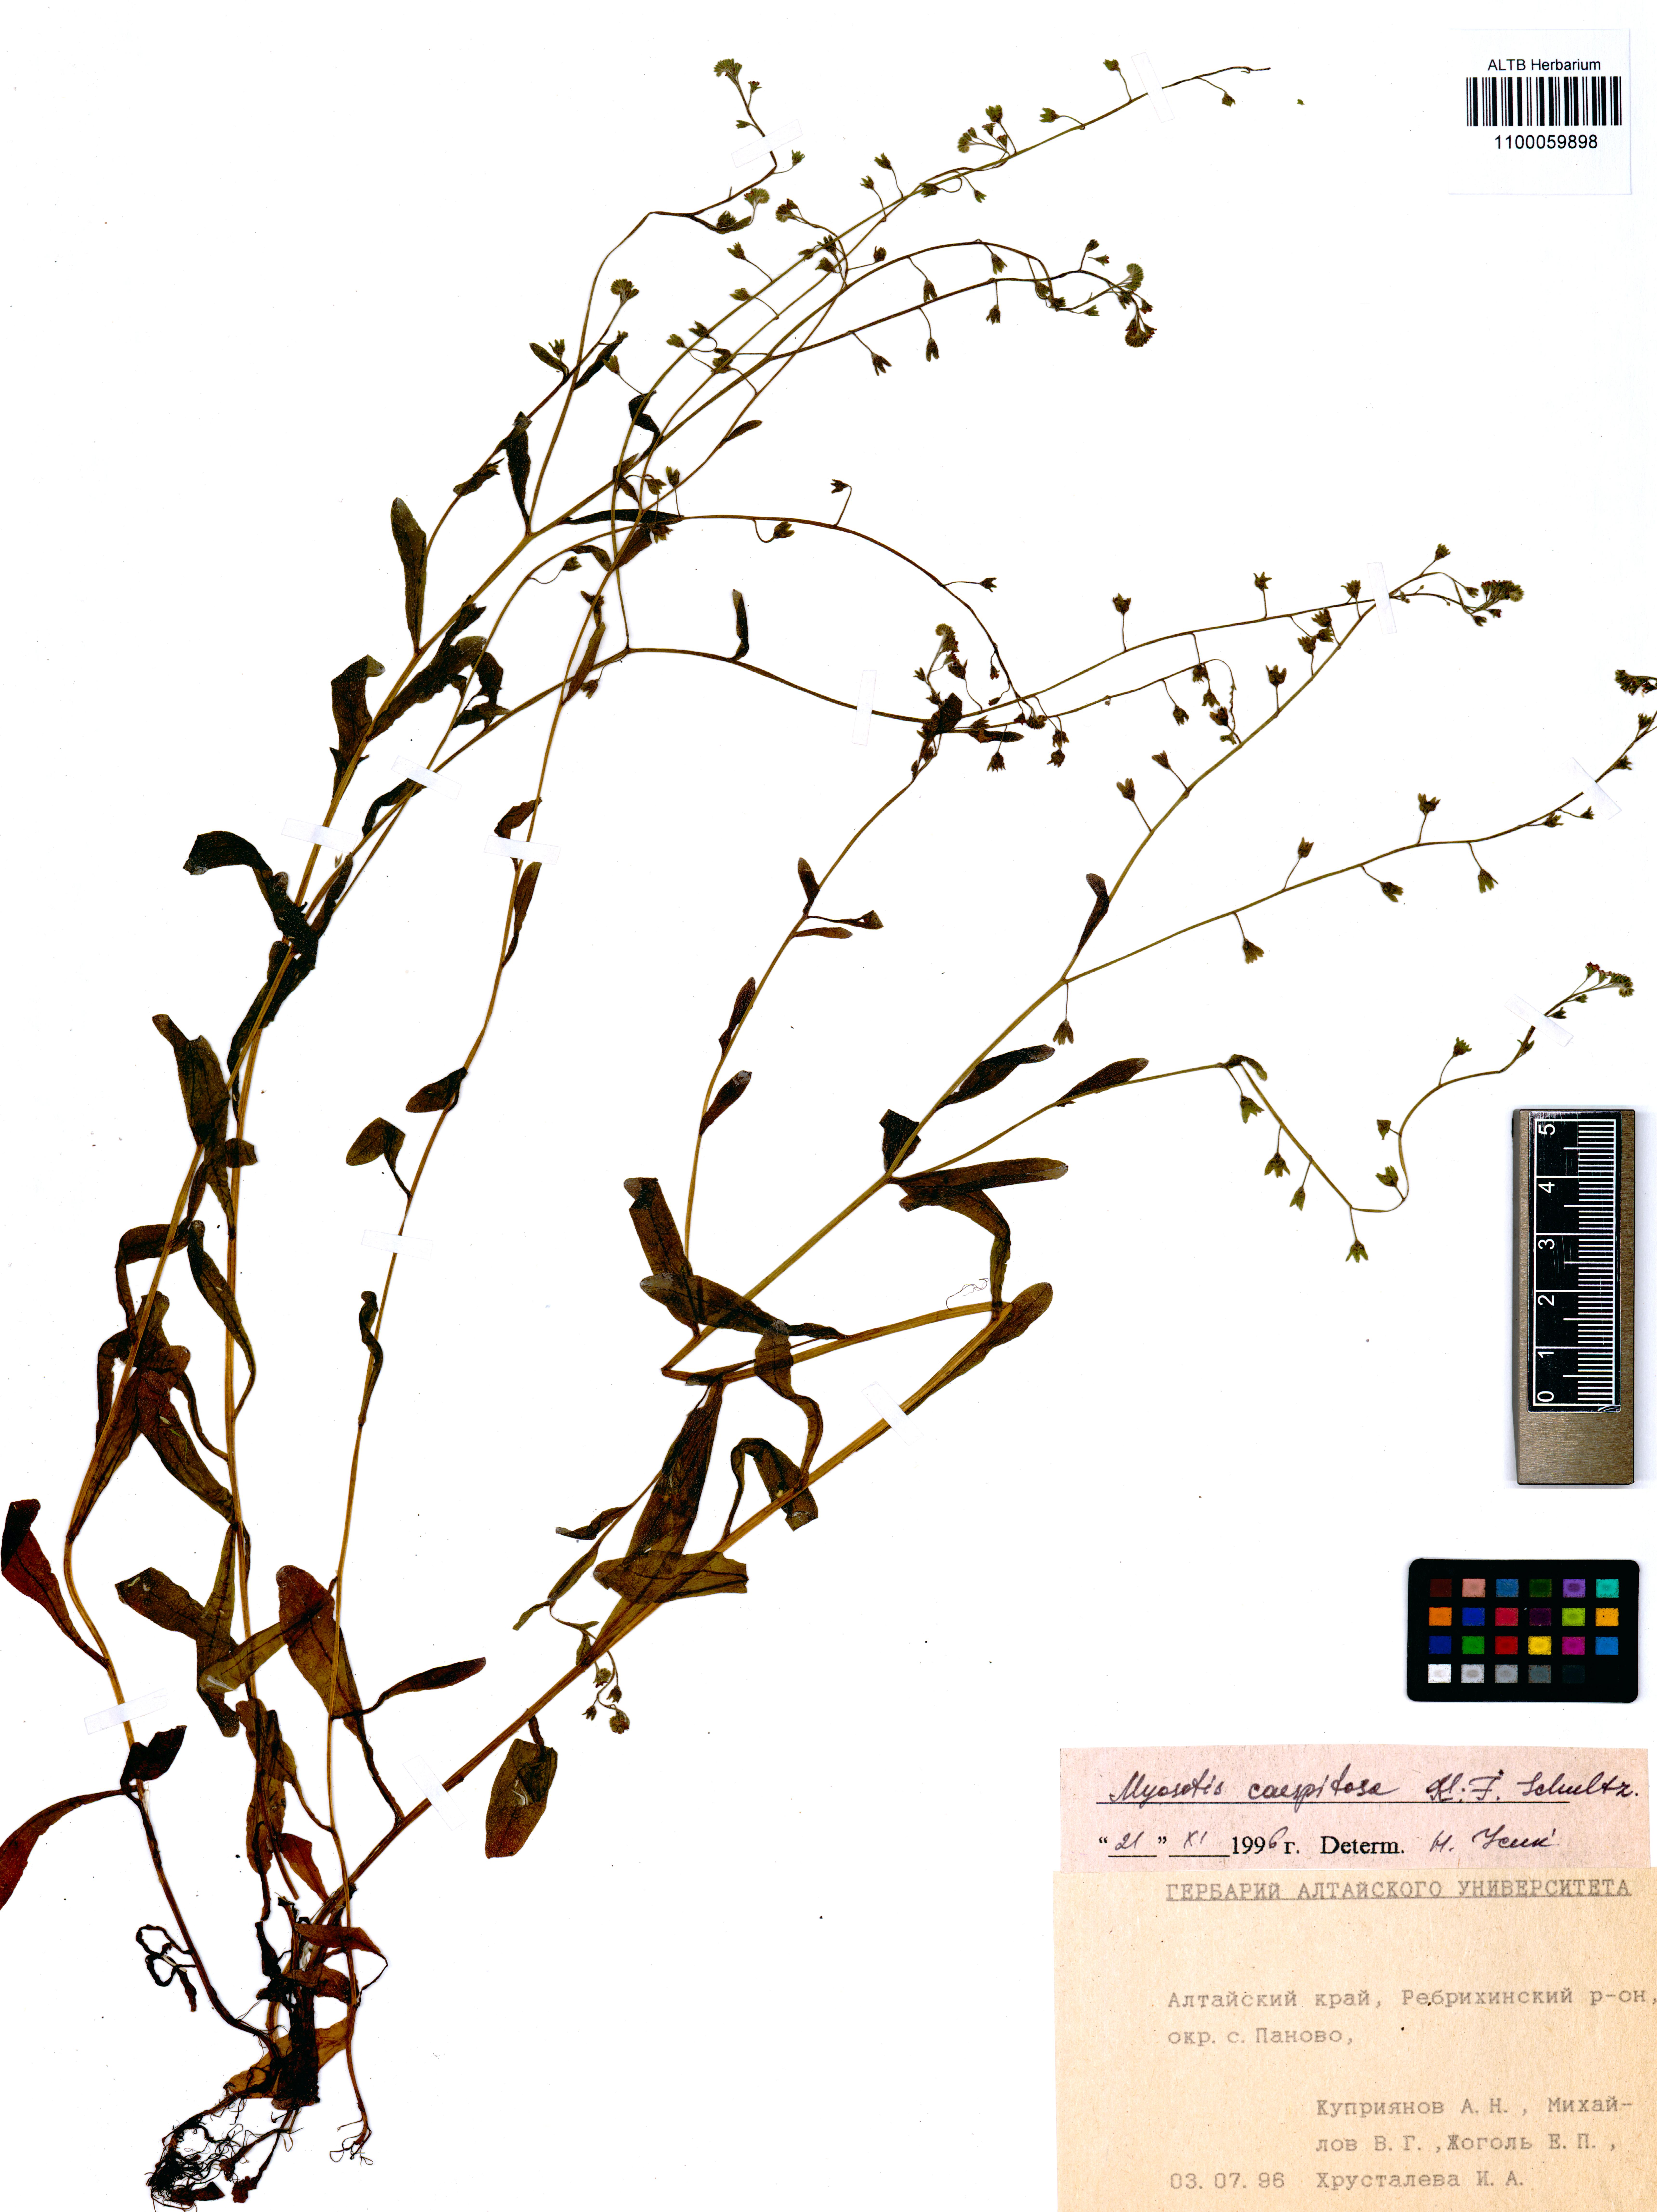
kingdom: Plantae
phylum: Tracheophyta
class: Magnoliopsida
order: Boraginales
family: Boraginaceae
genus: Myosotis
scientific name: Myosotis laxa
